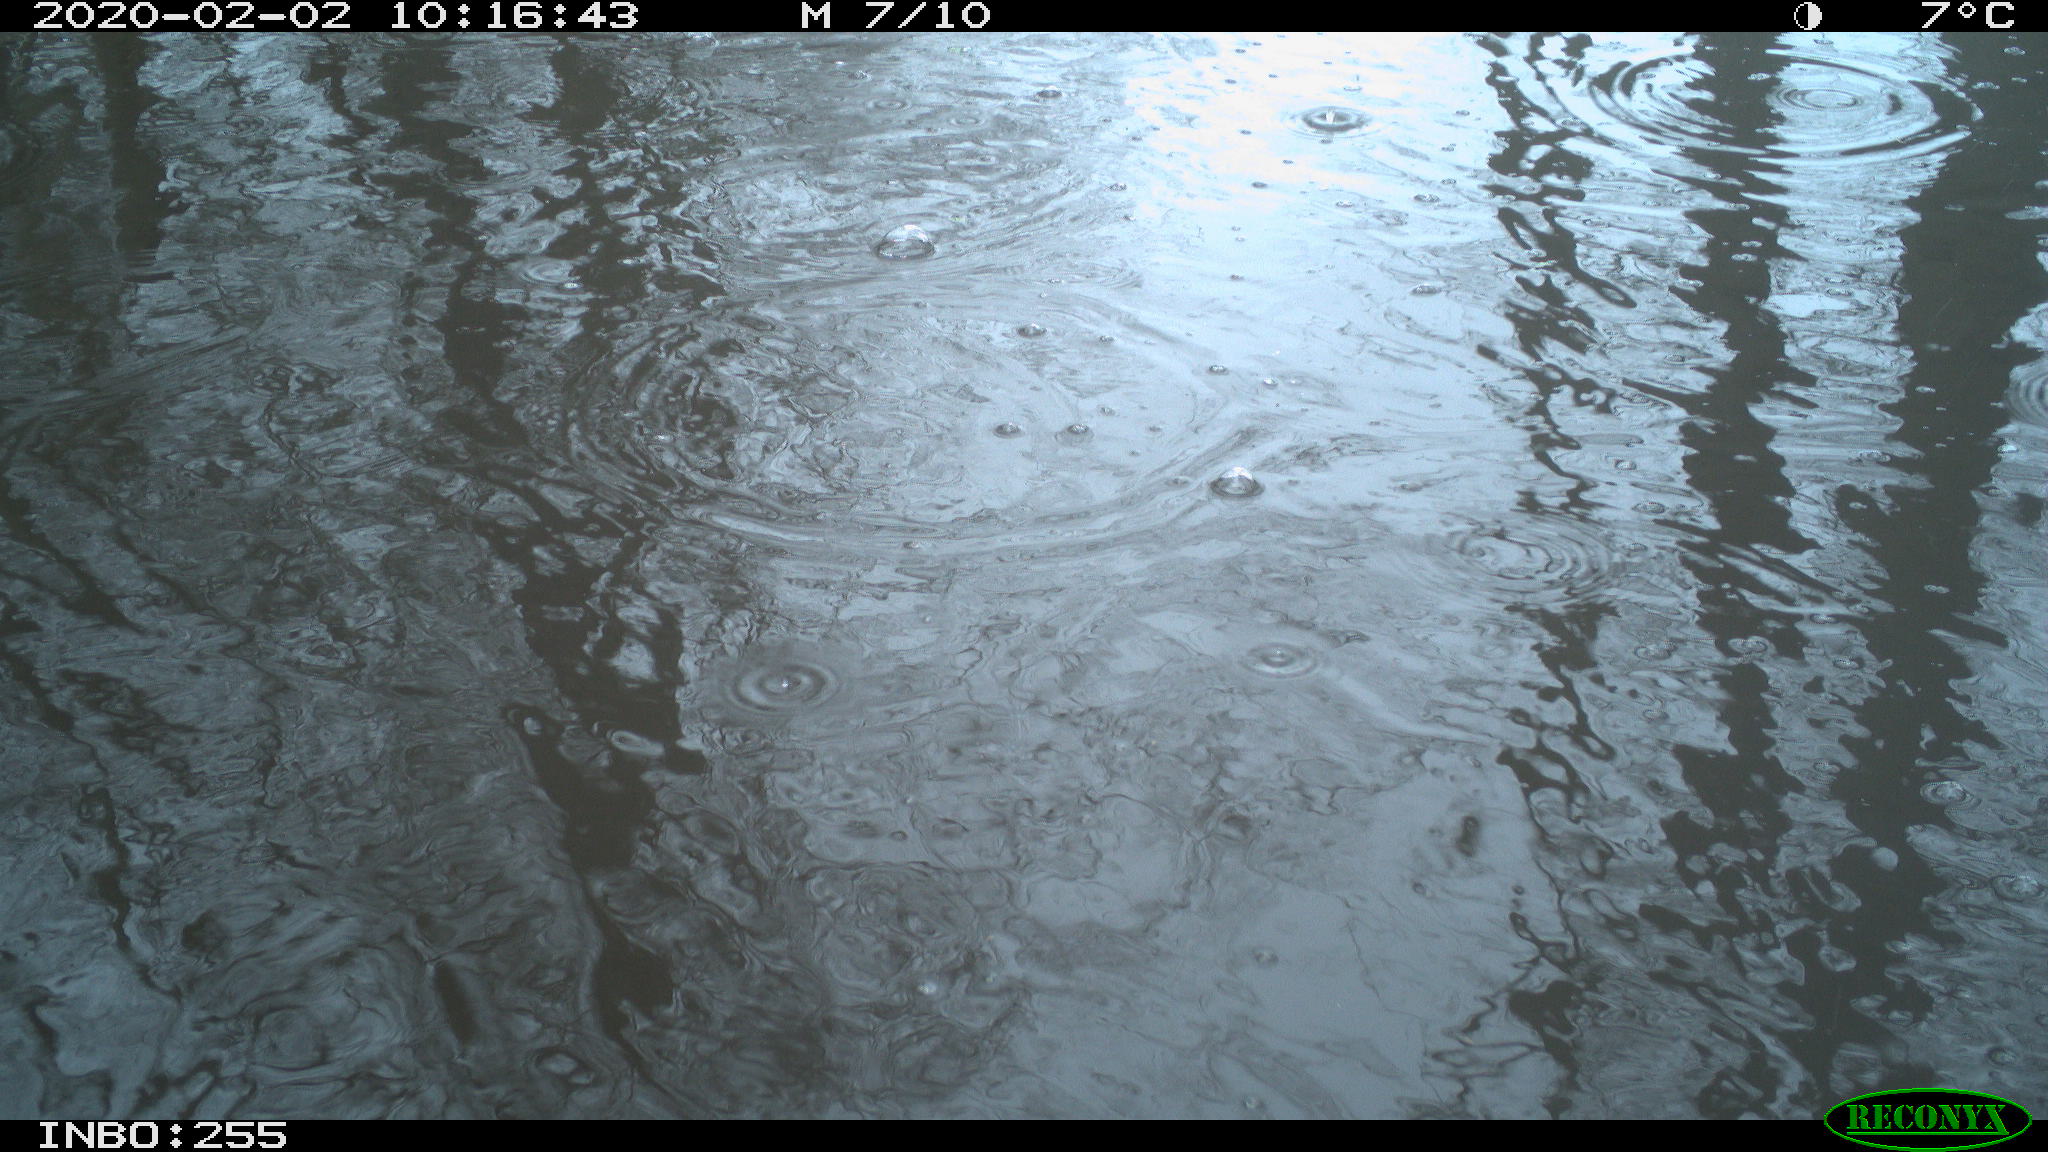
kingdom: Animalia
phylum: Chordata
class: Aves
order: Gruiformes
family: Rallidae
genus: Fulica
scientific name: Fulica atra
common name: Eurasian coot
